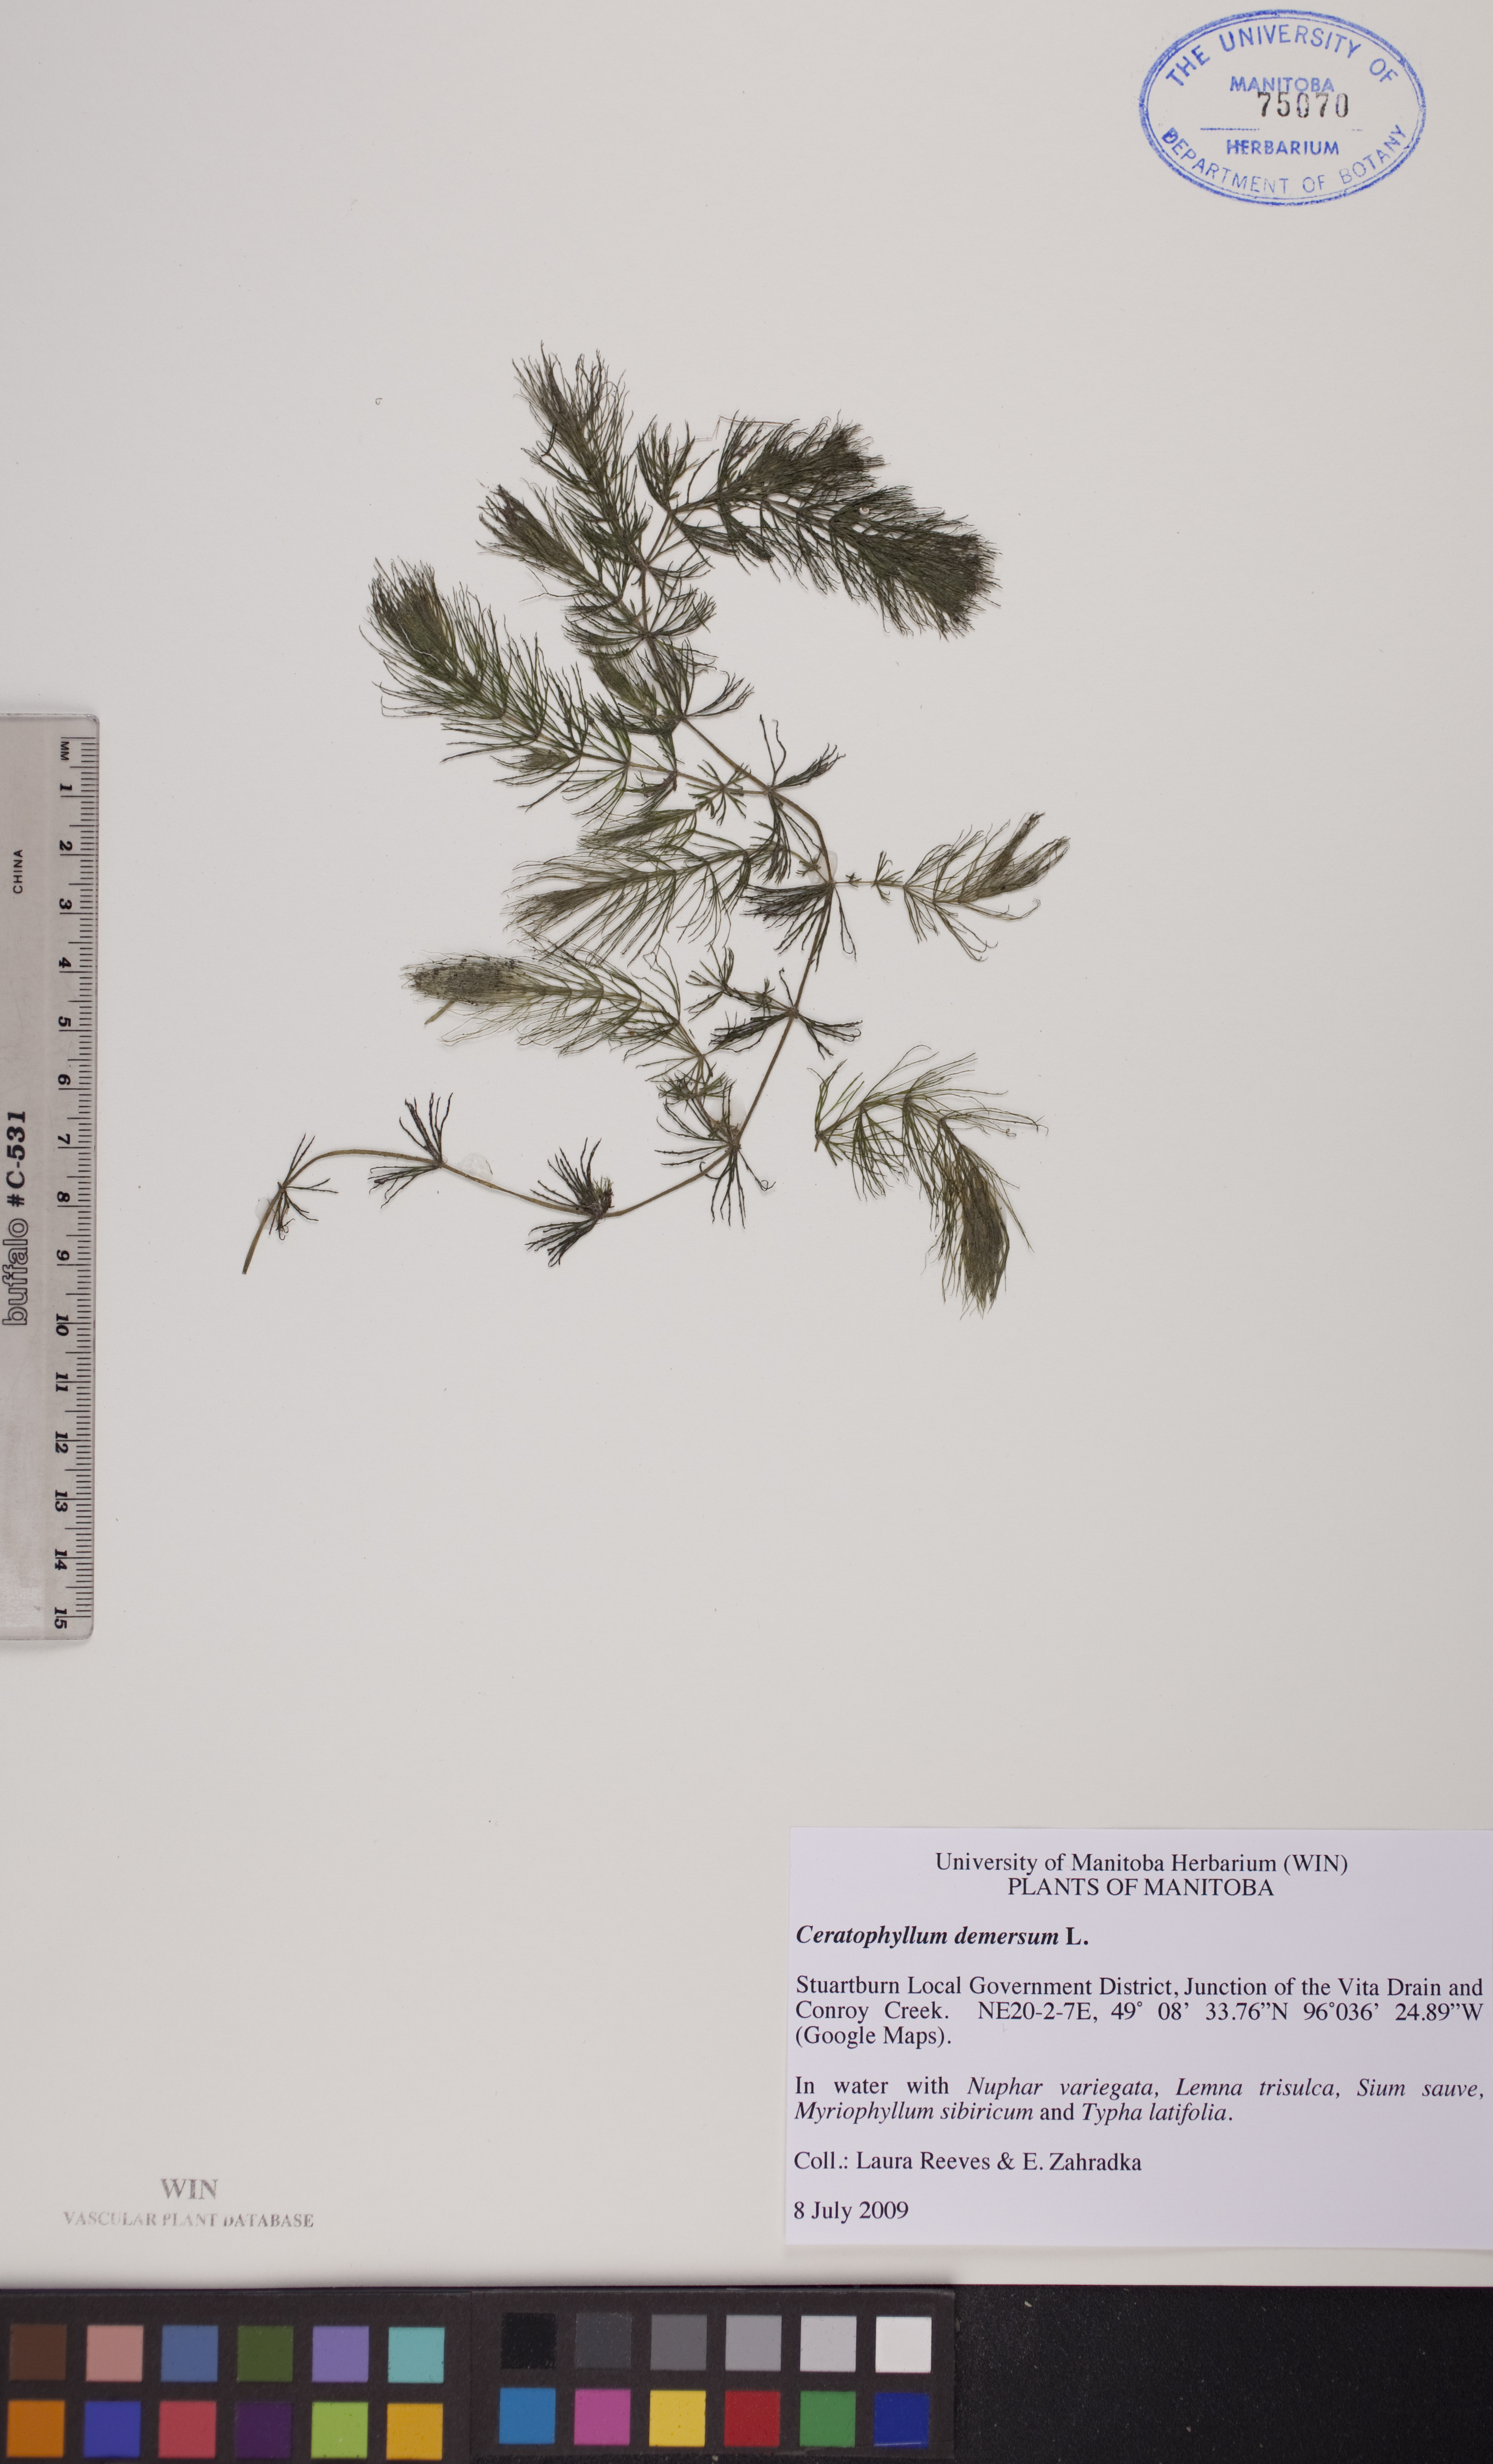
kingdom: Plantae
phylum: Tracheophyta
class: Magnoliopsida
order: Ceratophyllales
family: Ceratophyllaceae
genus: Ceratophyllum
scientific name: Ceratophyllum demersum
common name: Rigid hornwort
